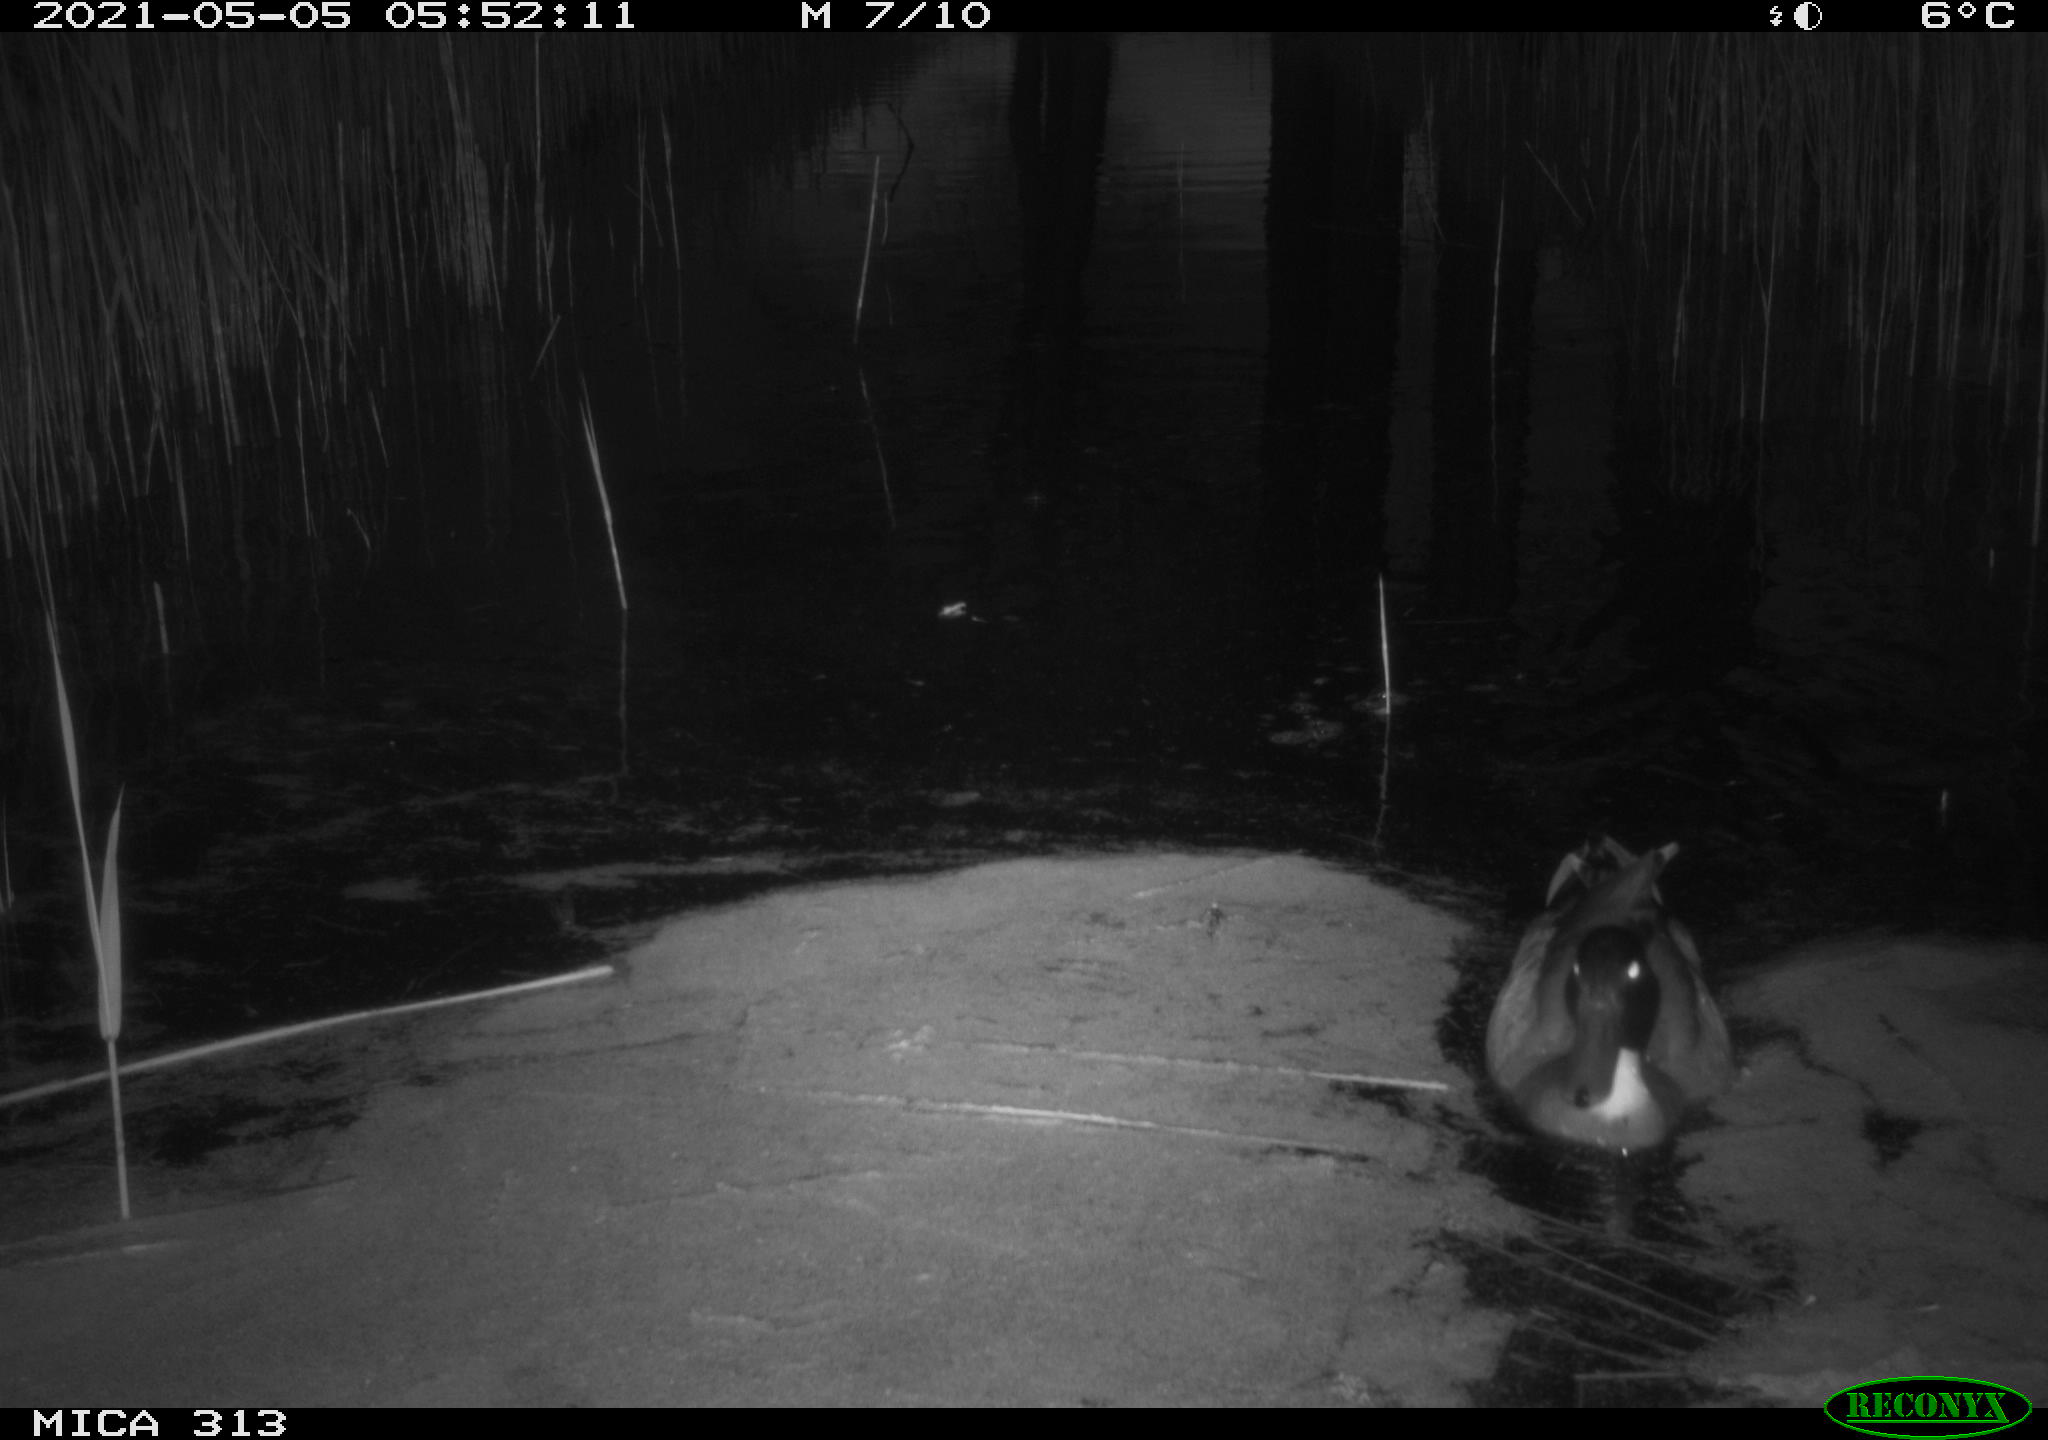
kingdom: Animalia
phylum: Chordata
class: Aves
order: Anseriformes
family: Anatidae
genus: Mareca
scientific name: Mareca strepera
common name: Gadwall
